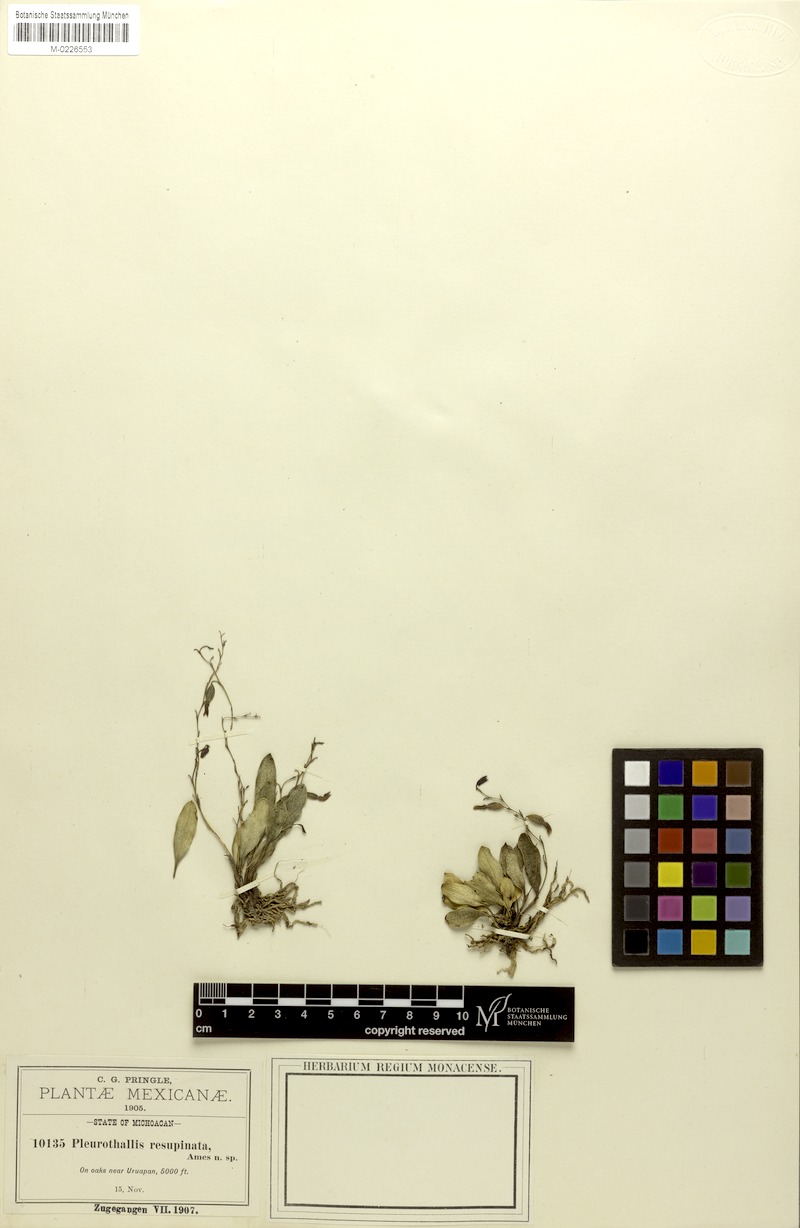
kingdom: Plantae
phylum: Tracheophyta
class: Liliopsida
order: Asparagales
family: Orchidaceae
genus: Stelis
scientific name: Stelis resupinata
